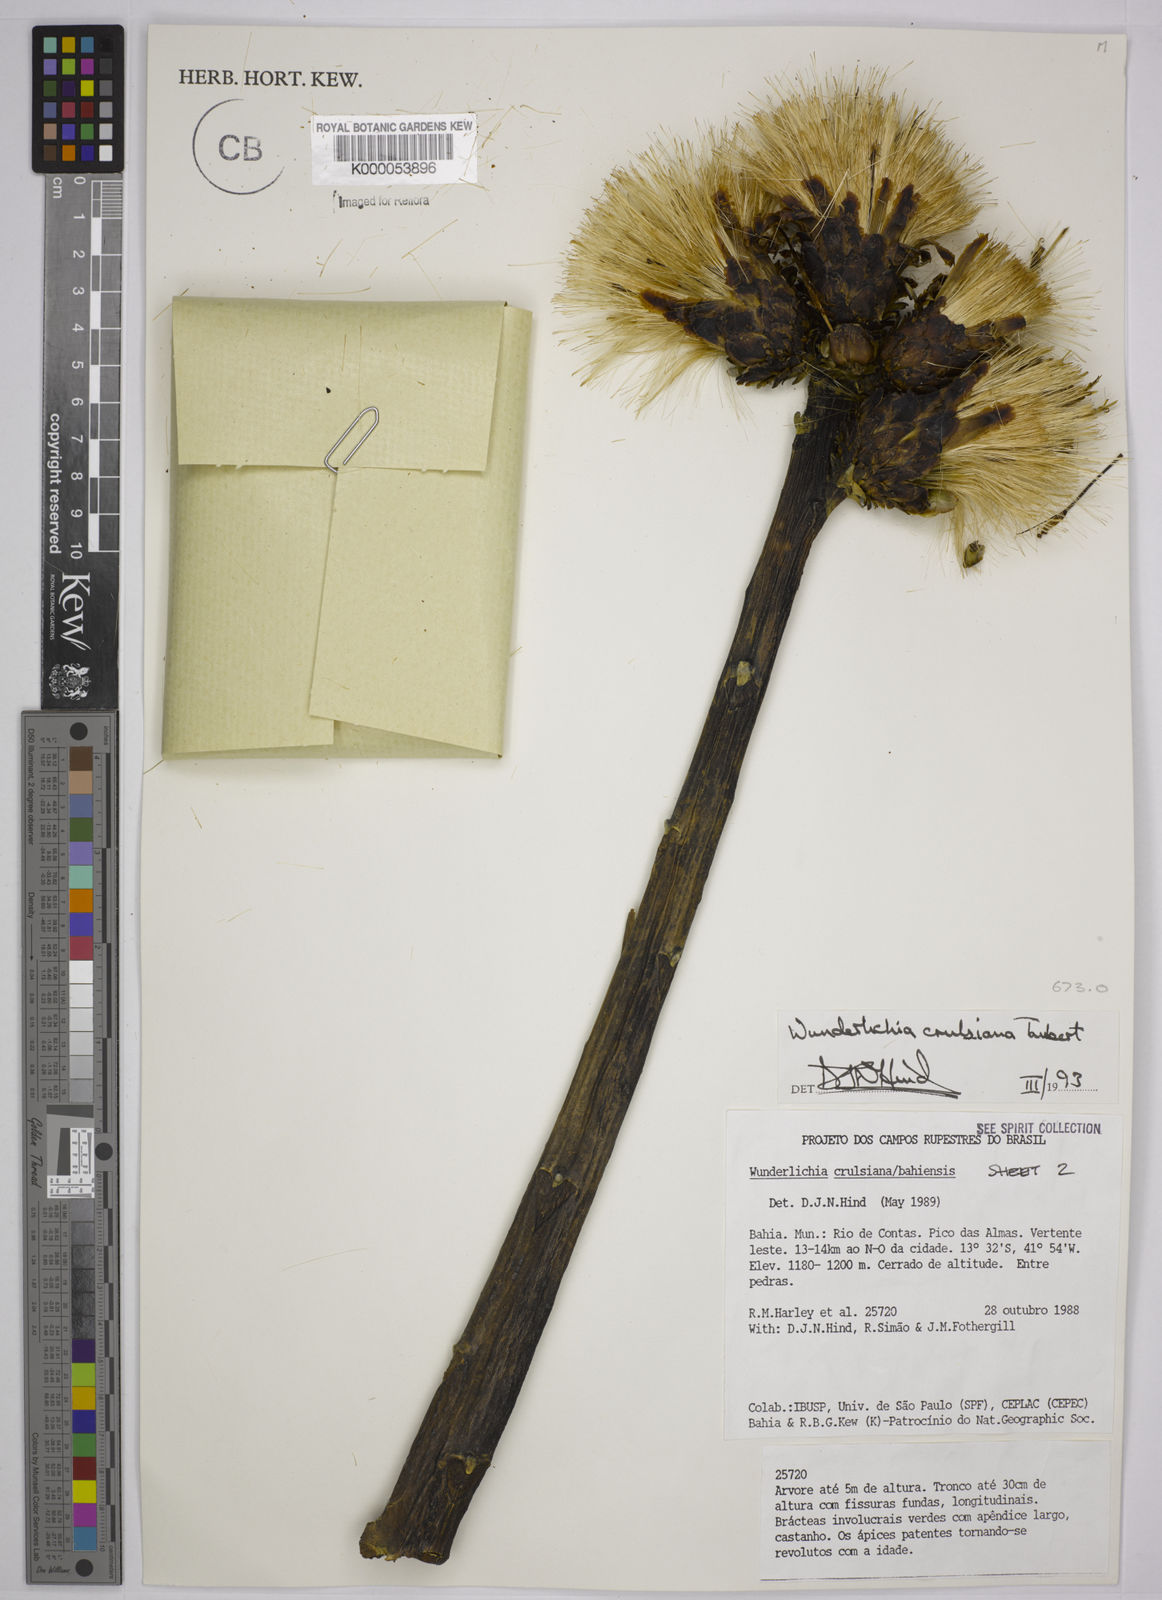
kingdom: Plantae
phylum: Tracheophyta
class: Magnoliopsida
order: Asterales
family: Asteraceae
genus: Wunderlichia
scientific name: Wunderlichia
